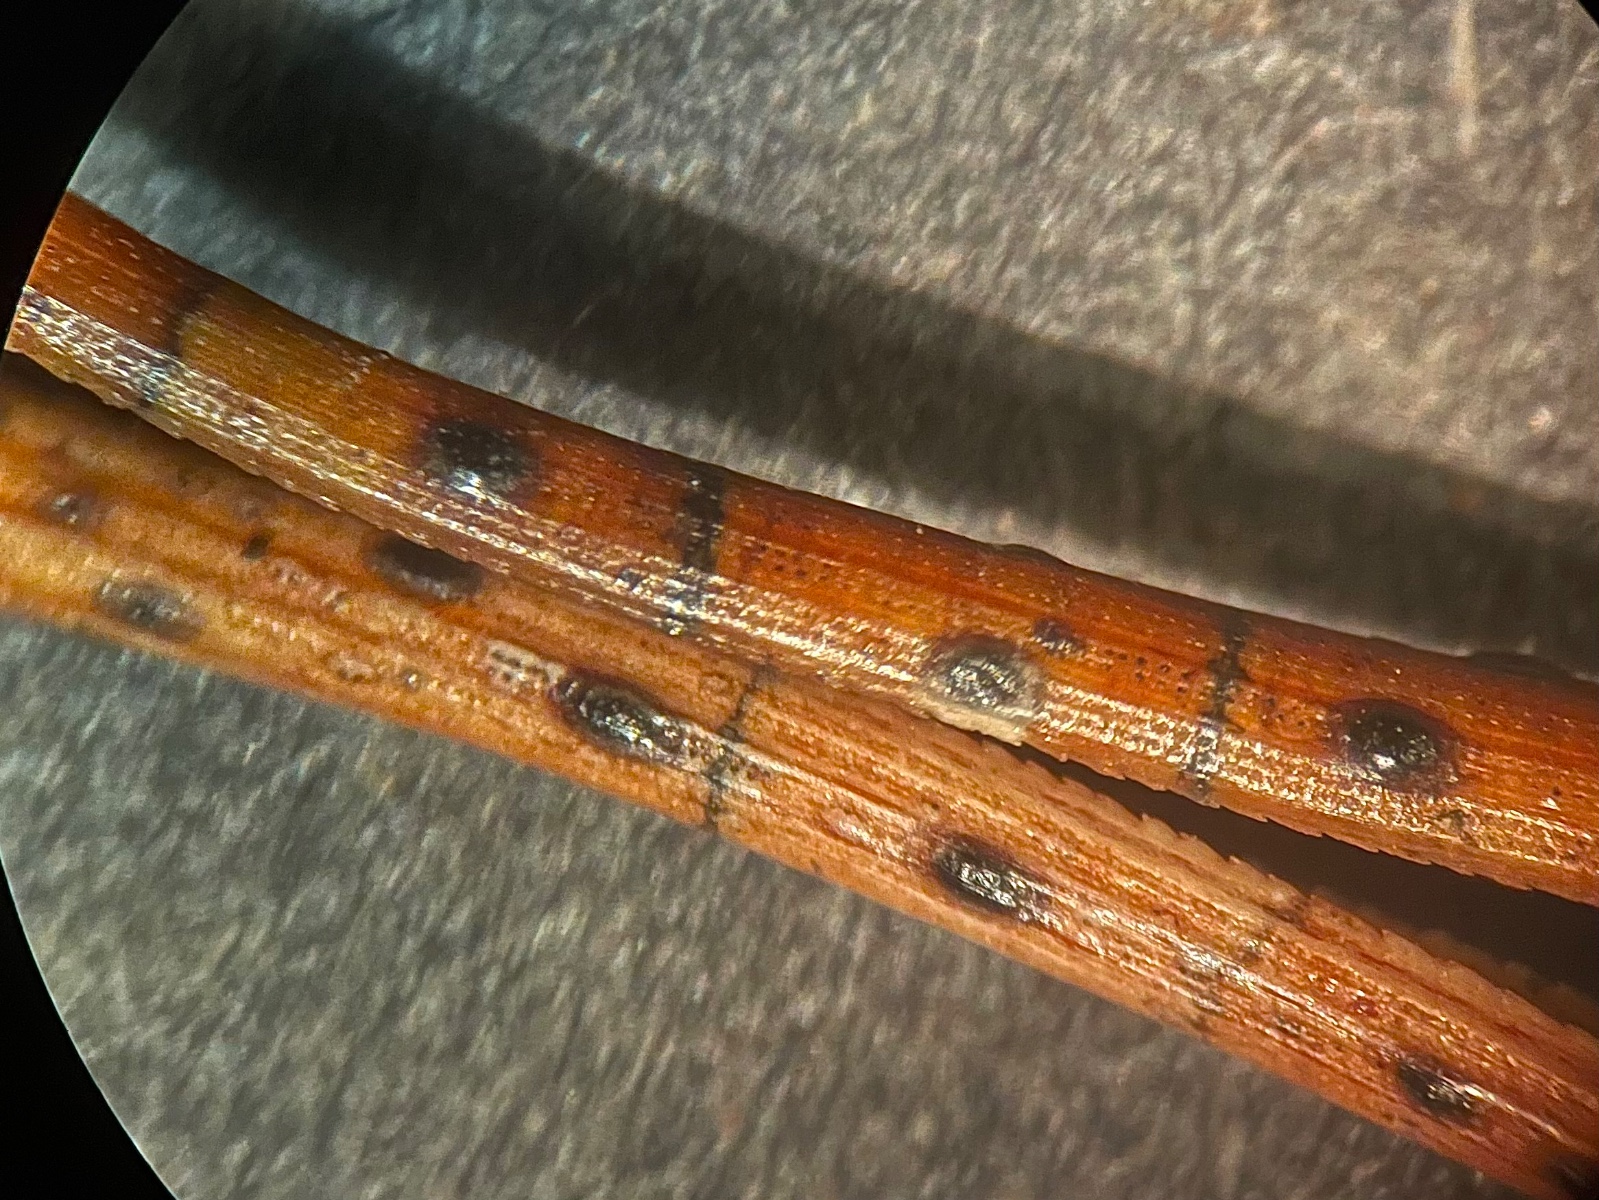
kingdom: Fungi
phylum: Ascomycota
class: Leotiomycetes
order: Rhytismatales
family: Rhytismataceae
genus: Lophodermium
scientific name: Lophodermium pinastri
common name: fyrre-fureplet
